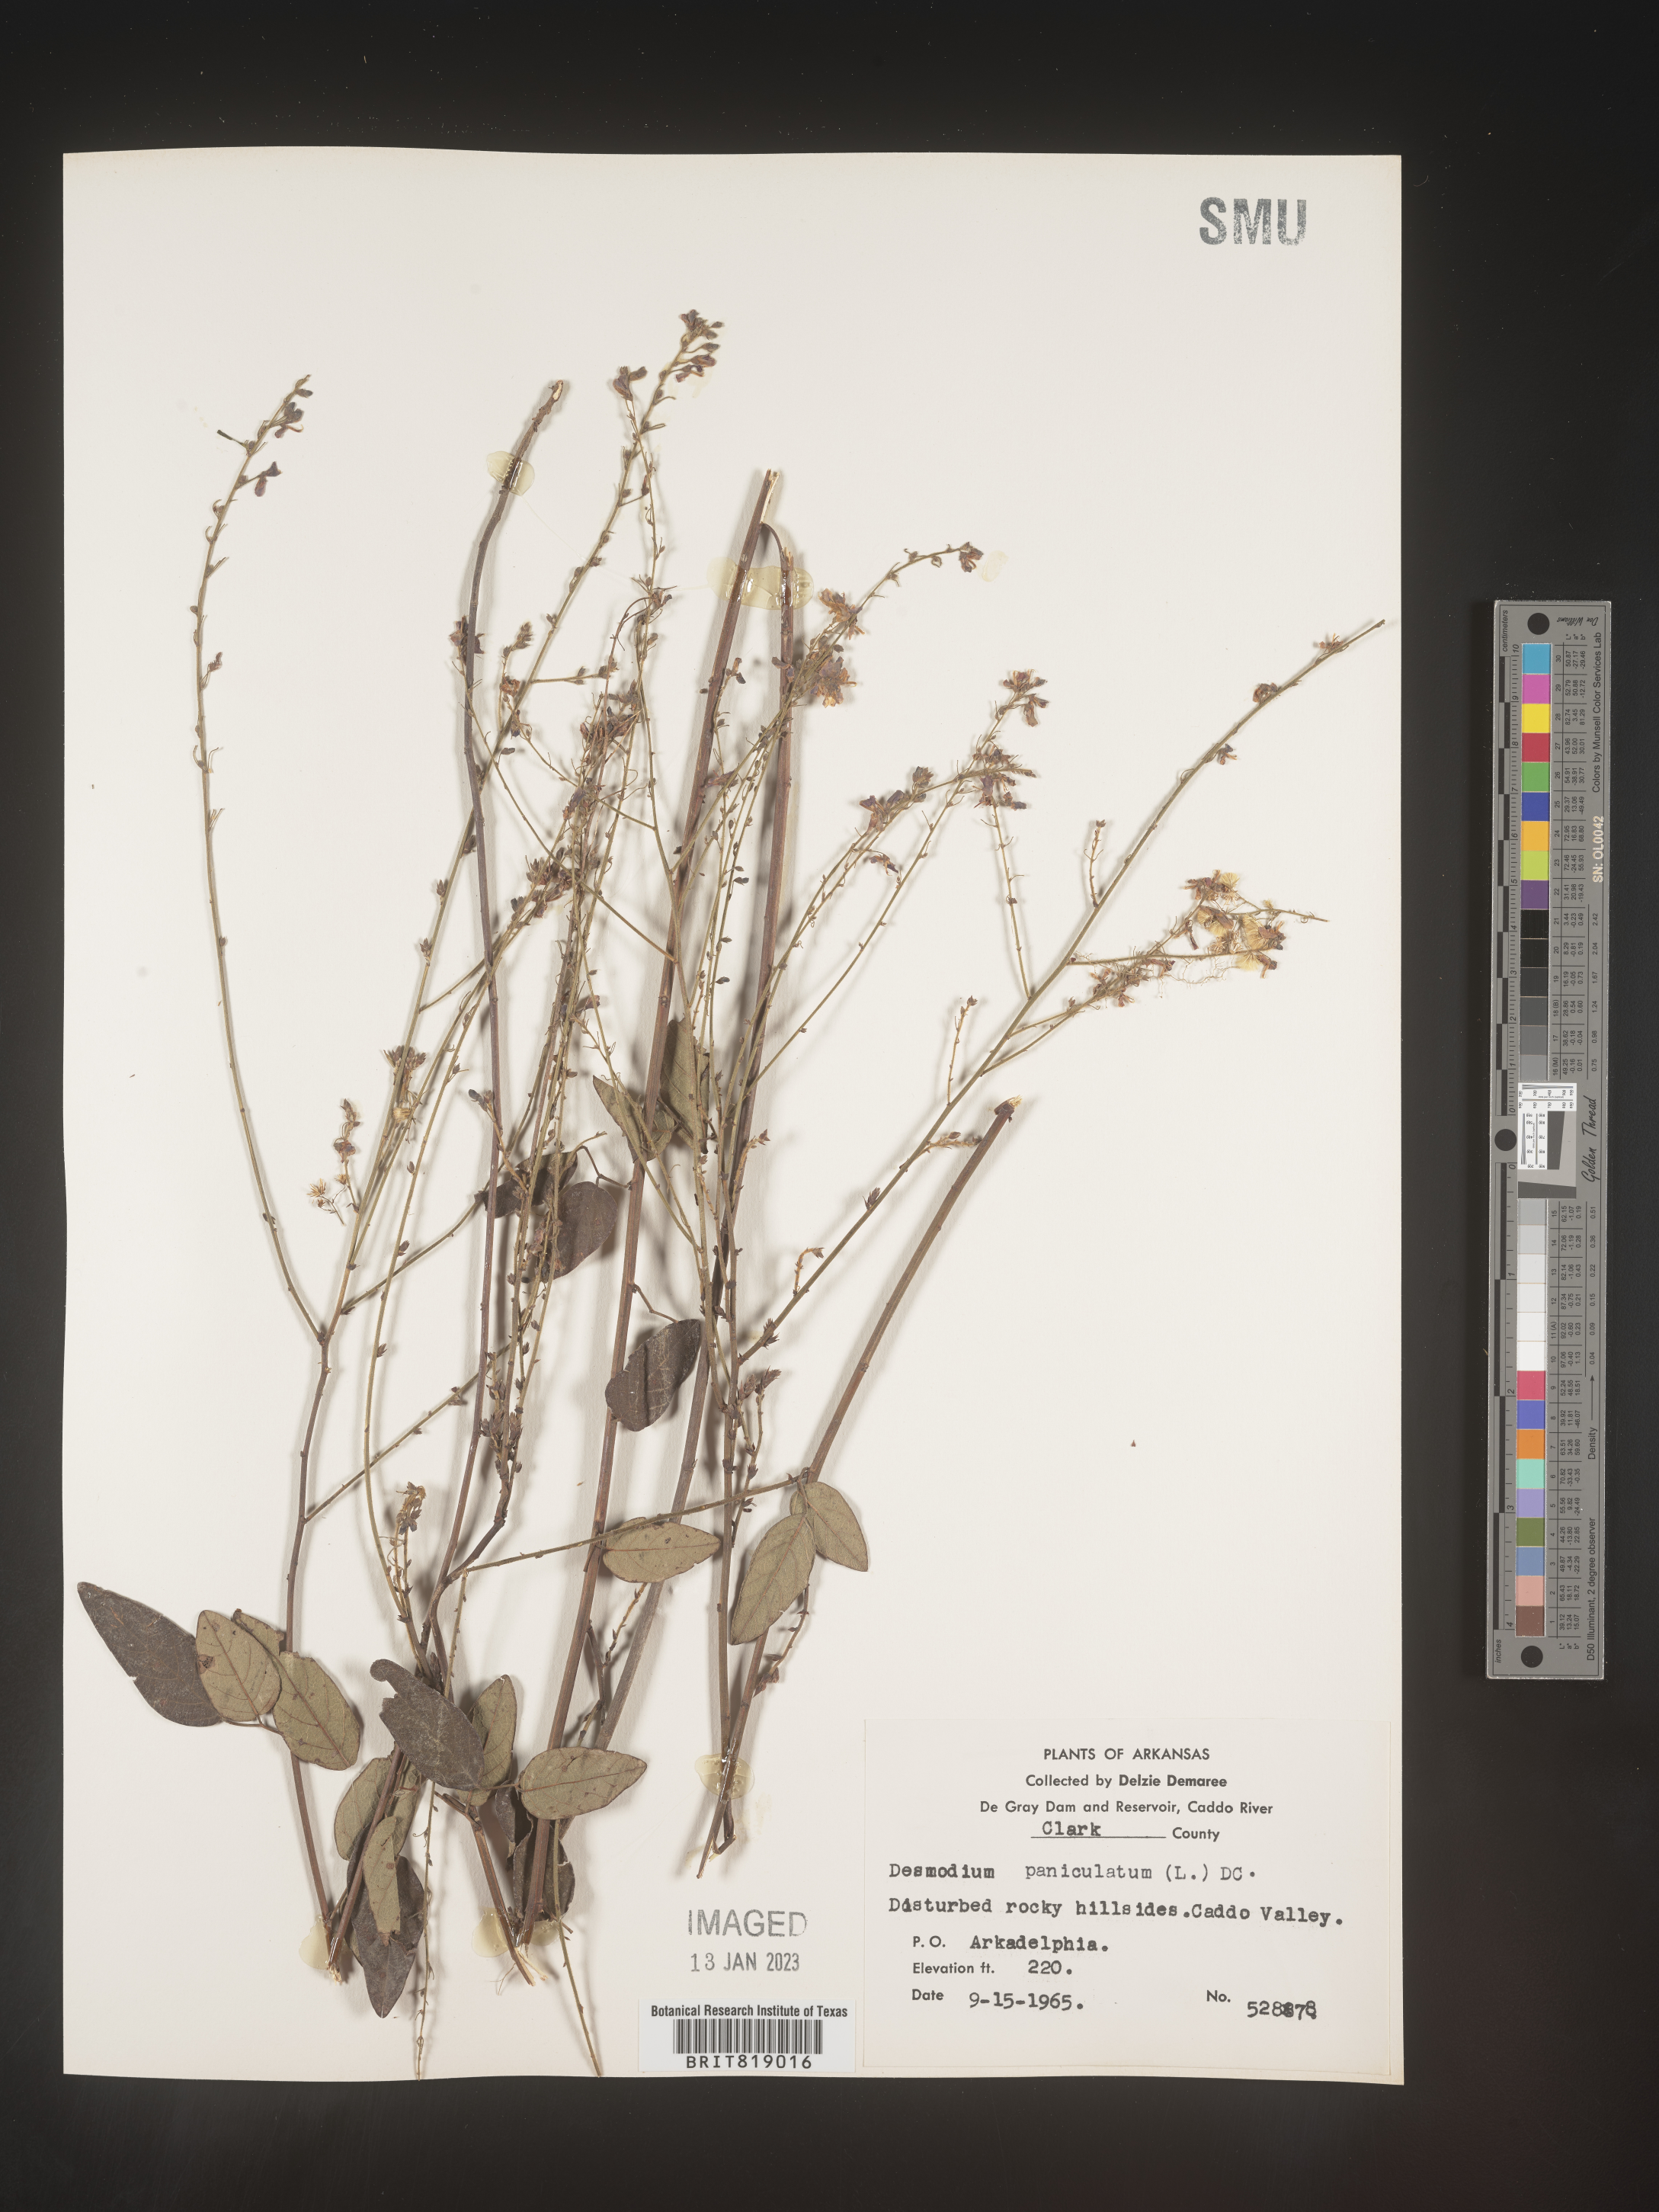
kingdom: Plantae
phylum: Tracheophyta
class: Magnoliopsida
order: Fabales
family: Fabaceae
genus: Desmodium
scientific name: Desmodium paniculatum
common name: Panicled tick-clover
